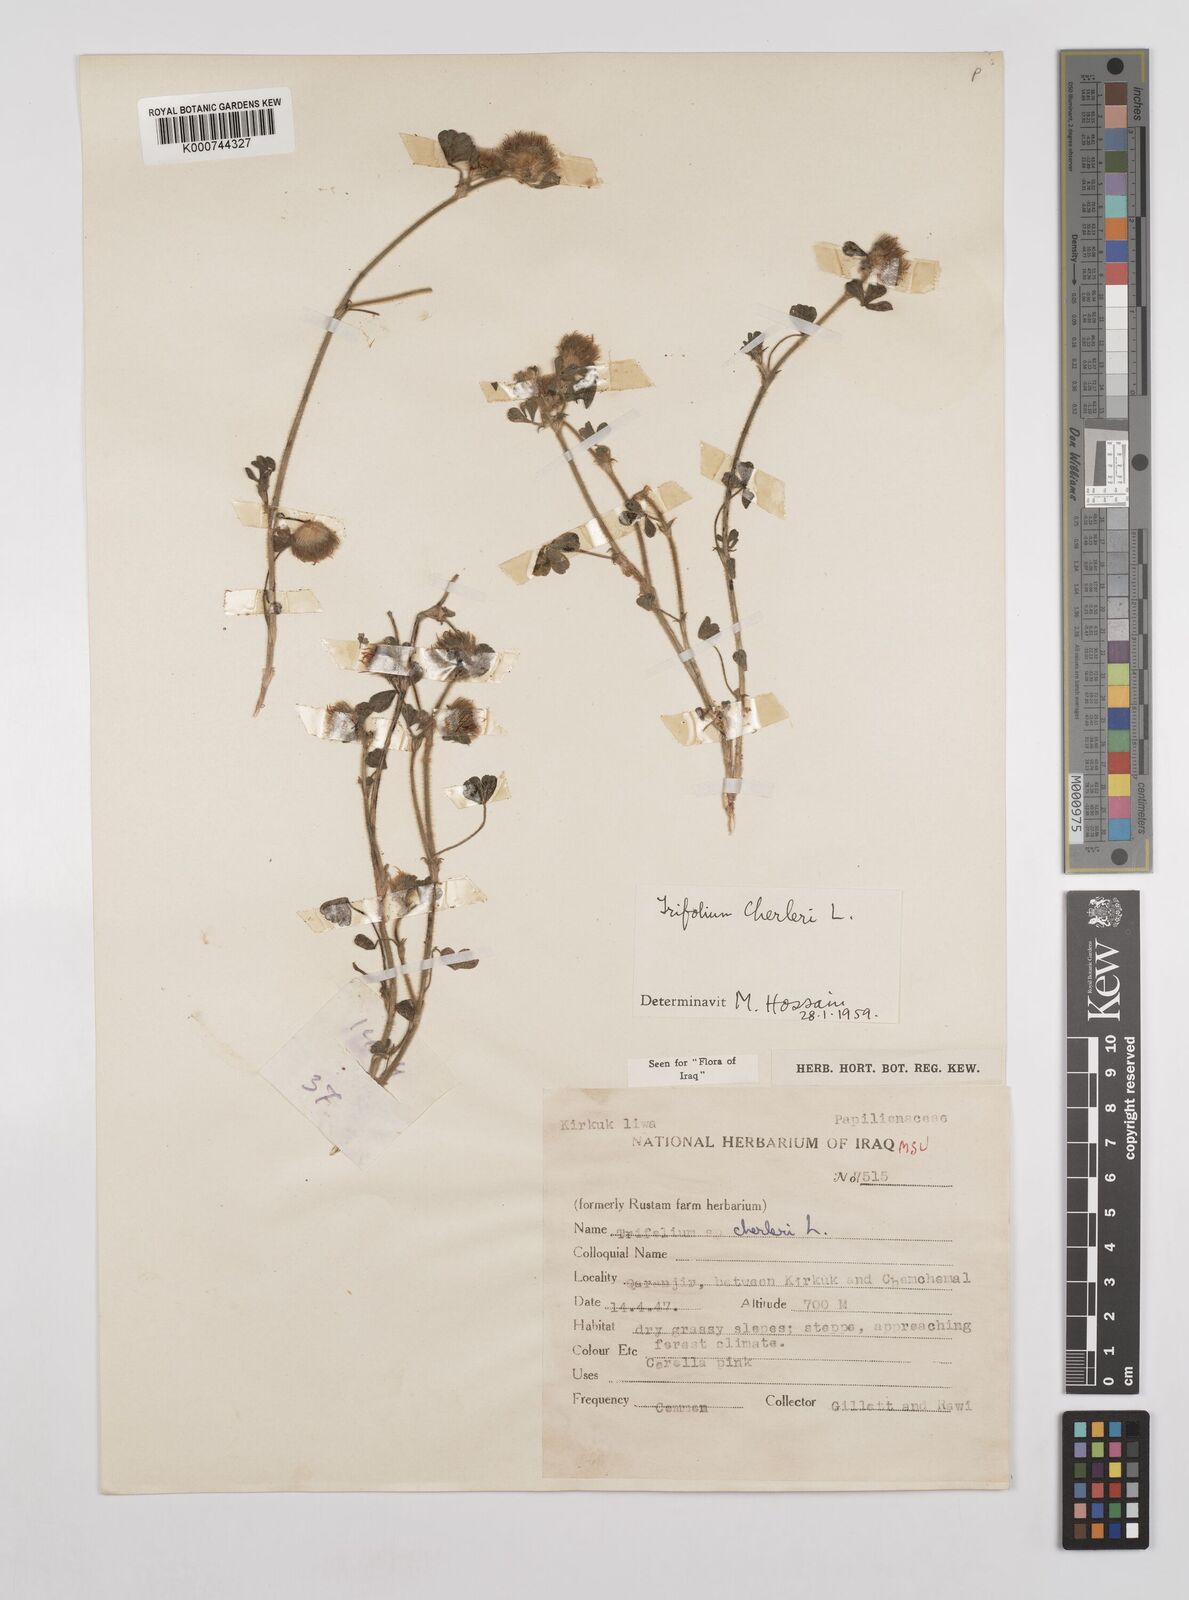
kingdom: Plantae
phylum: Tracheophyta
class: Magnoliopsida
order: Fabales
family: Fabaceae
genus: Trifolium
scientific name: Trifolium cherleri
